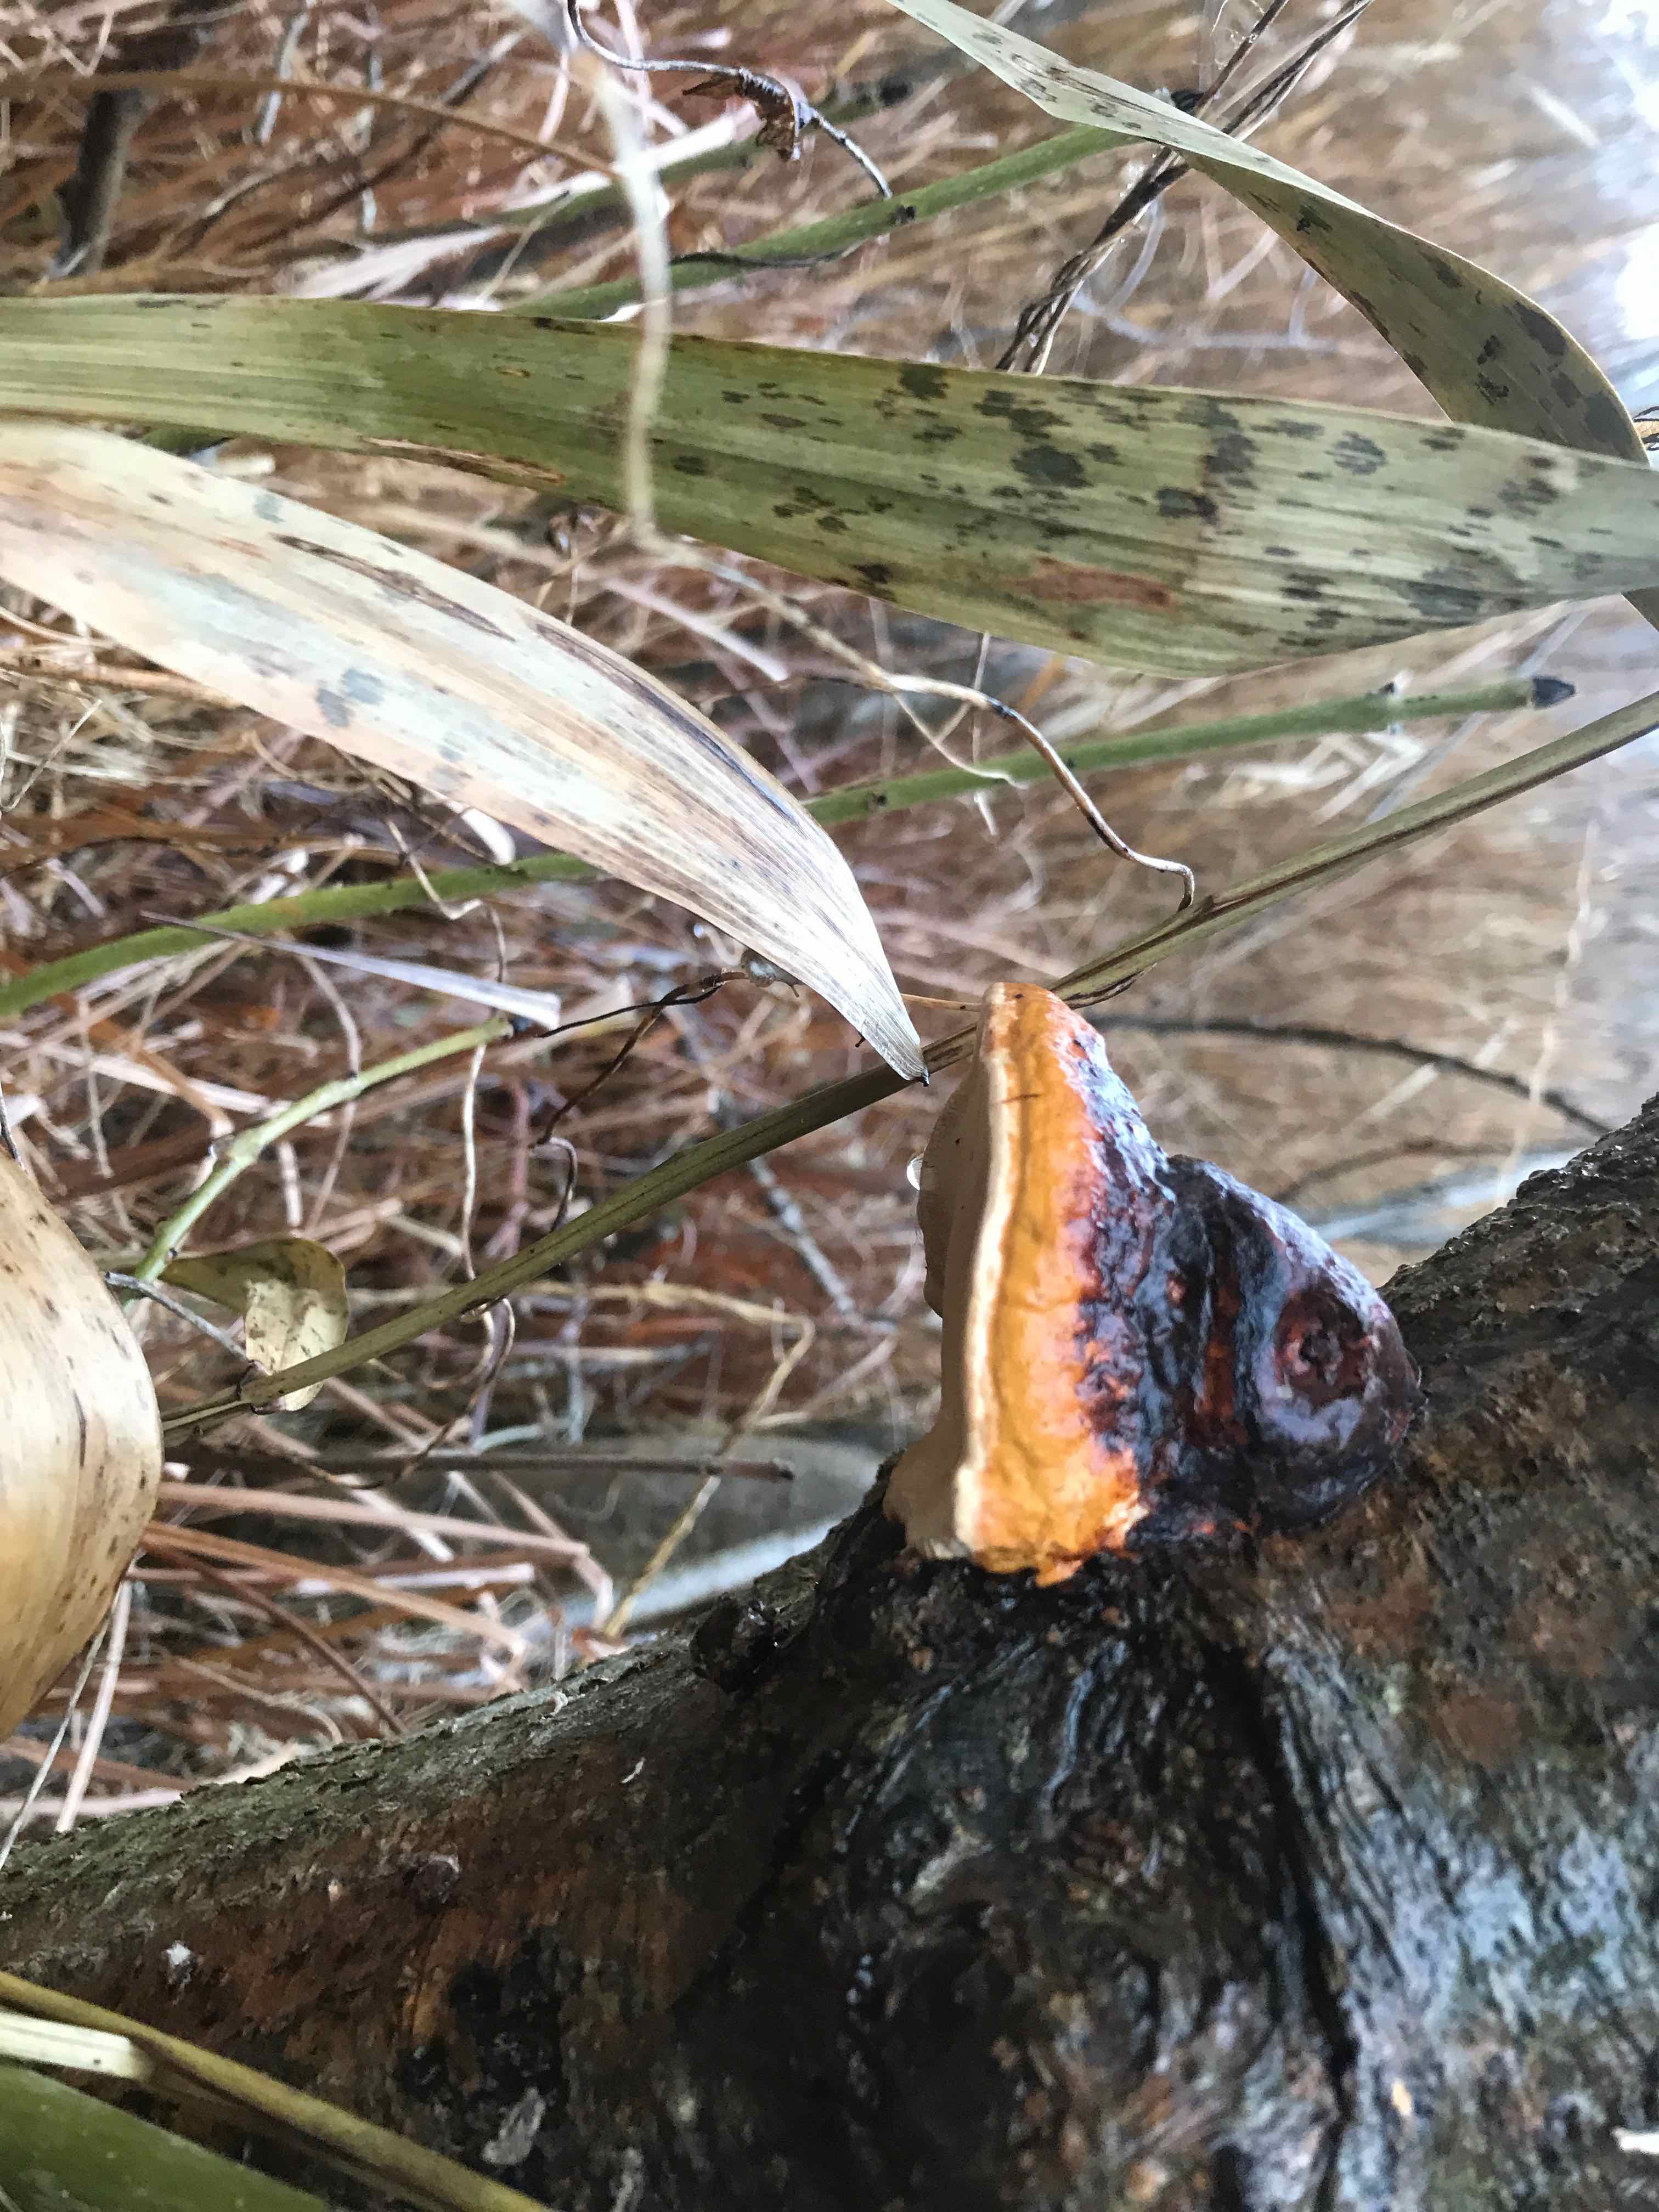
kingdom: Fungi
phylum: Basidiomycota
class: Agaricomycetes
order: Polyporales
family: Fomitopsidaceae
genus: Fomitopsis
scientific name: Fomitopsis pinicola
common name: randbæltet hovporesvamp
